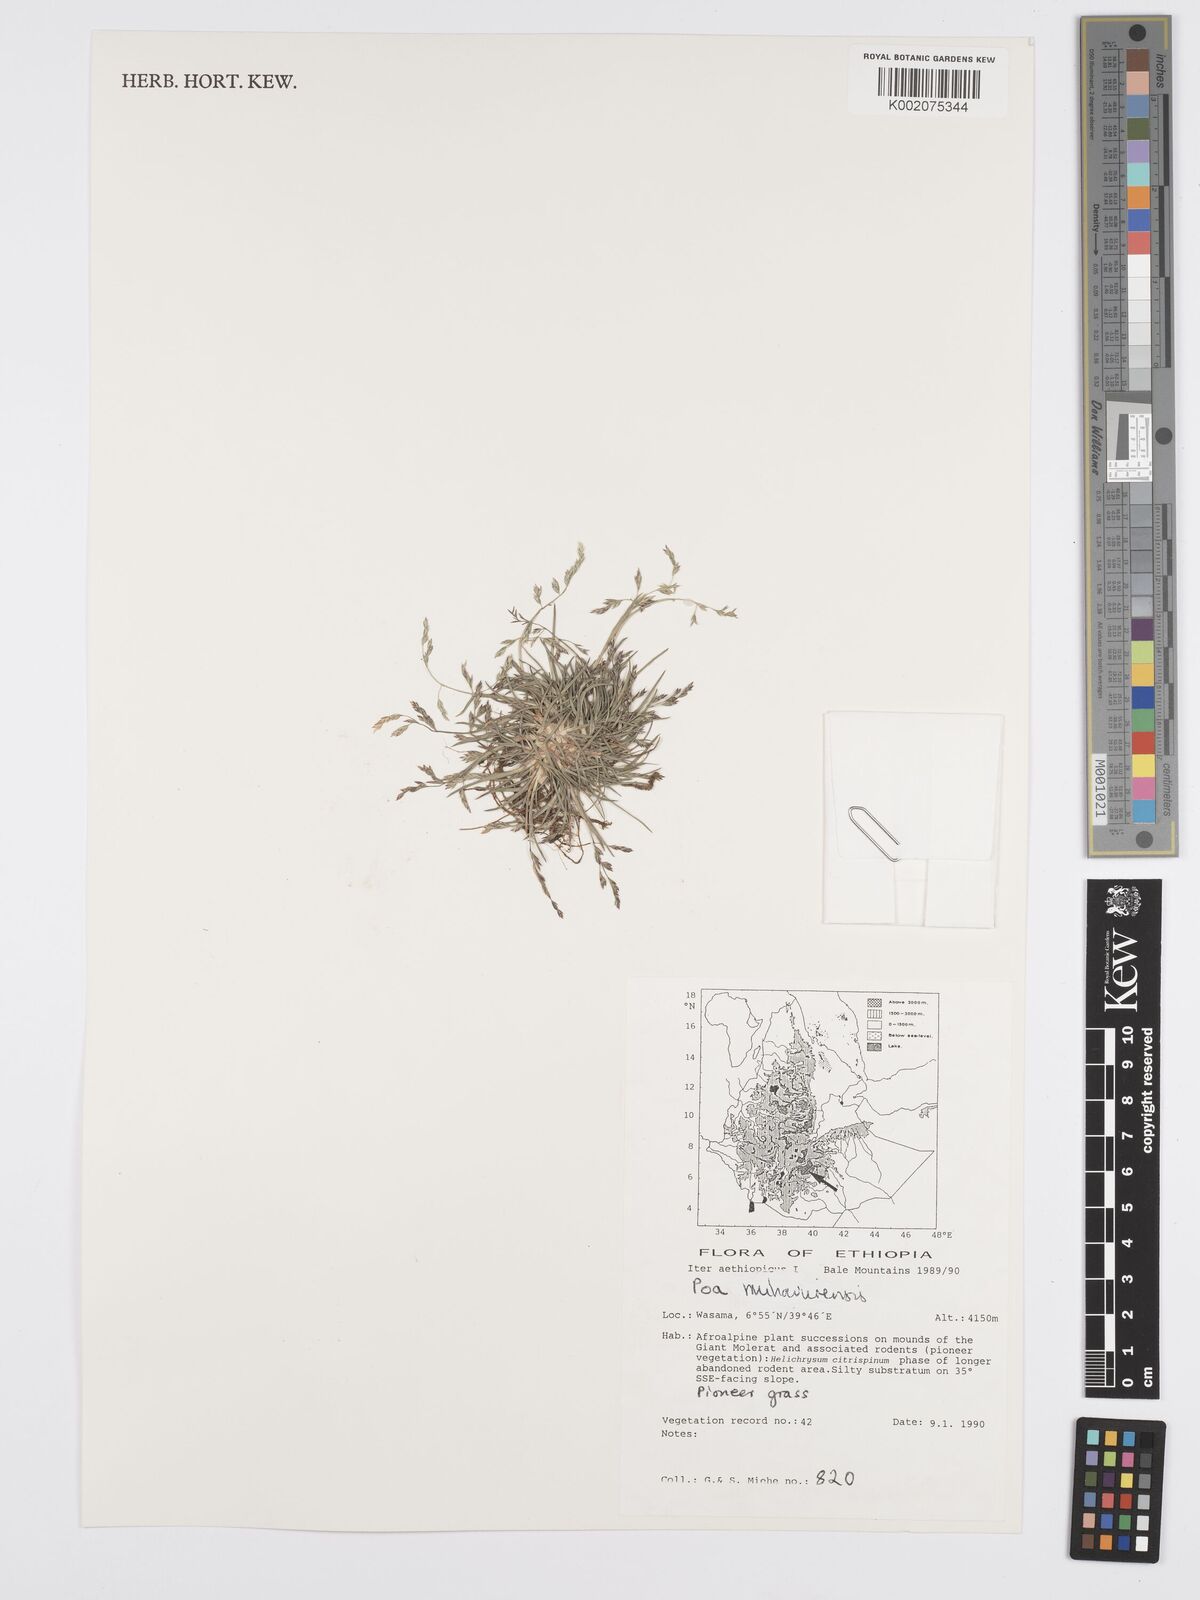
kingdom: Plantae
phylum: Tracheophyta
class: Liliopsida
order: Poales
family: Poaceae
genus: Poa
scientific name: Poa schimperiana
